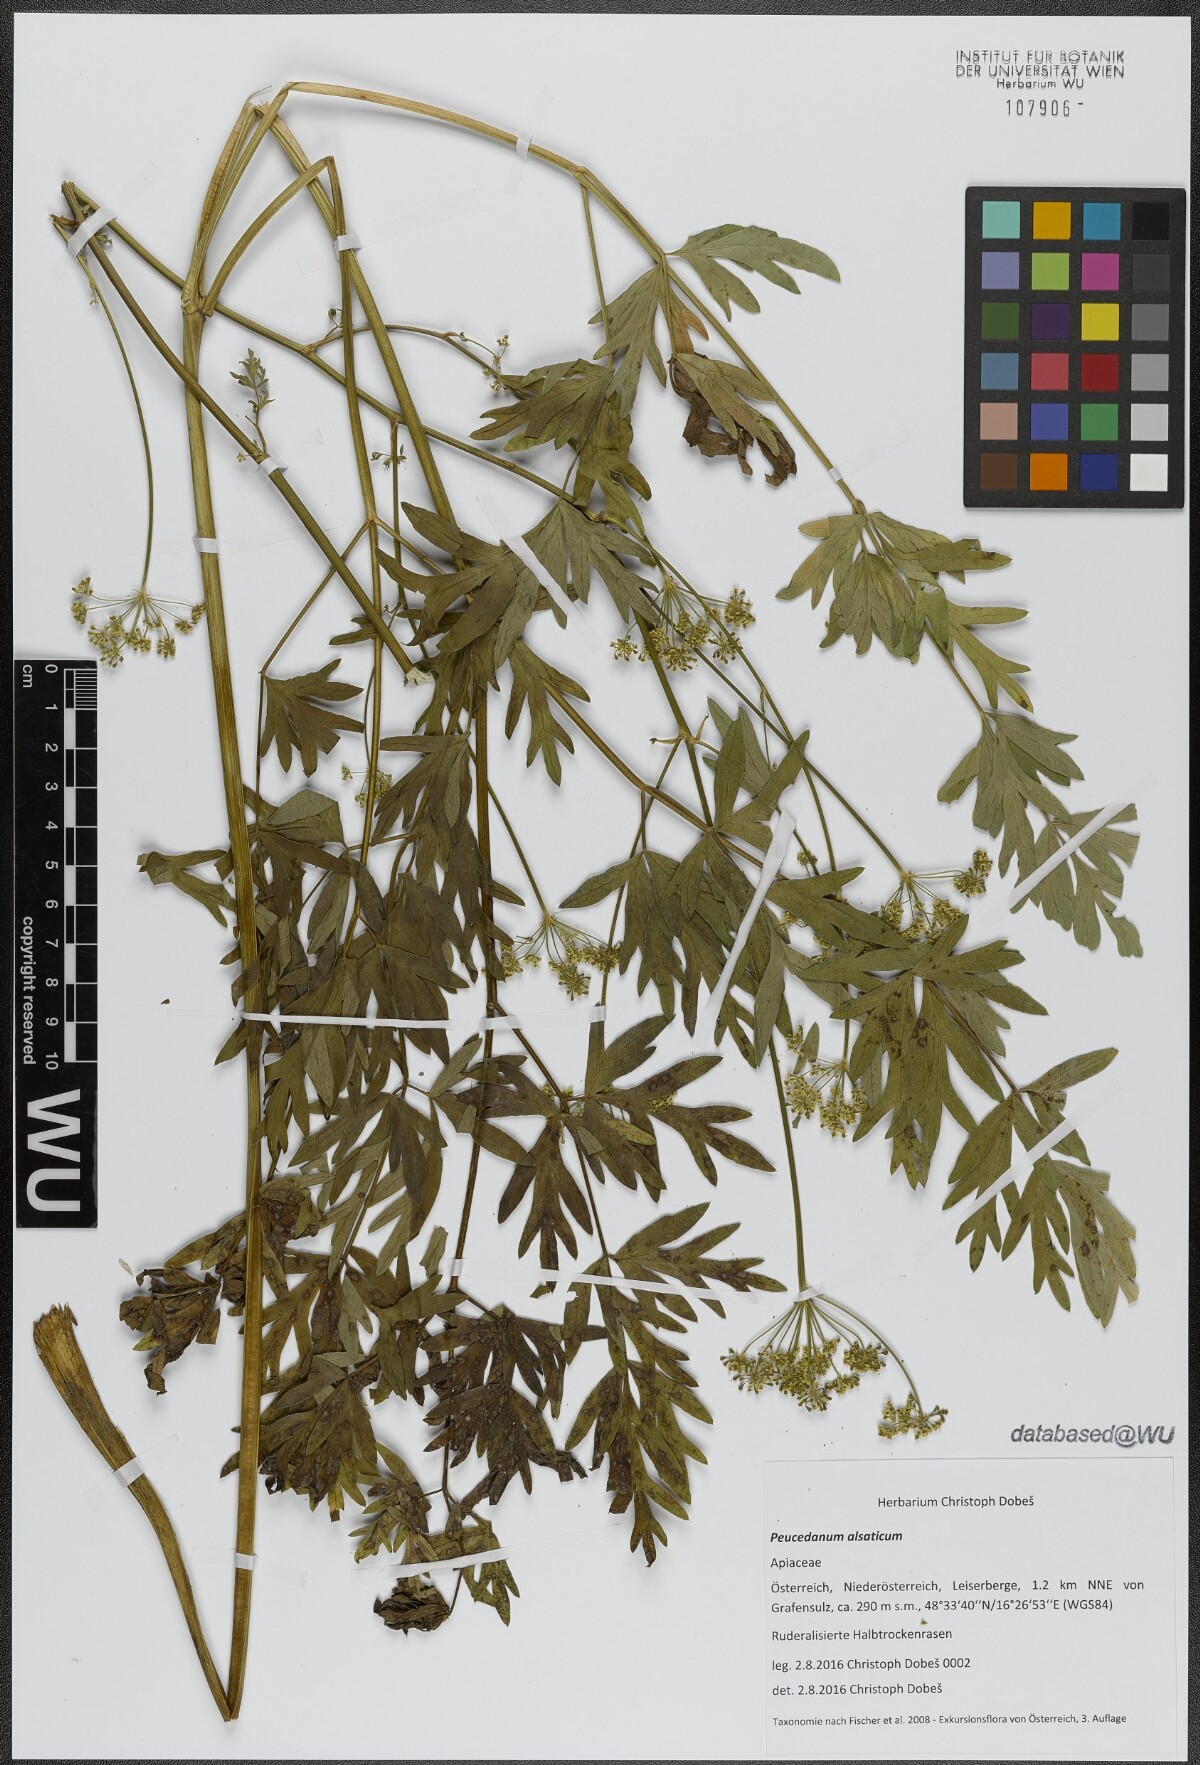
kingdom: Plantae
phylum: Tracheophyta
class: Magnoliopsida
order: Apiales
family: Apiaceae
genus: Xanthoselinum
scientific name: Xanthoselinum alsaticum
